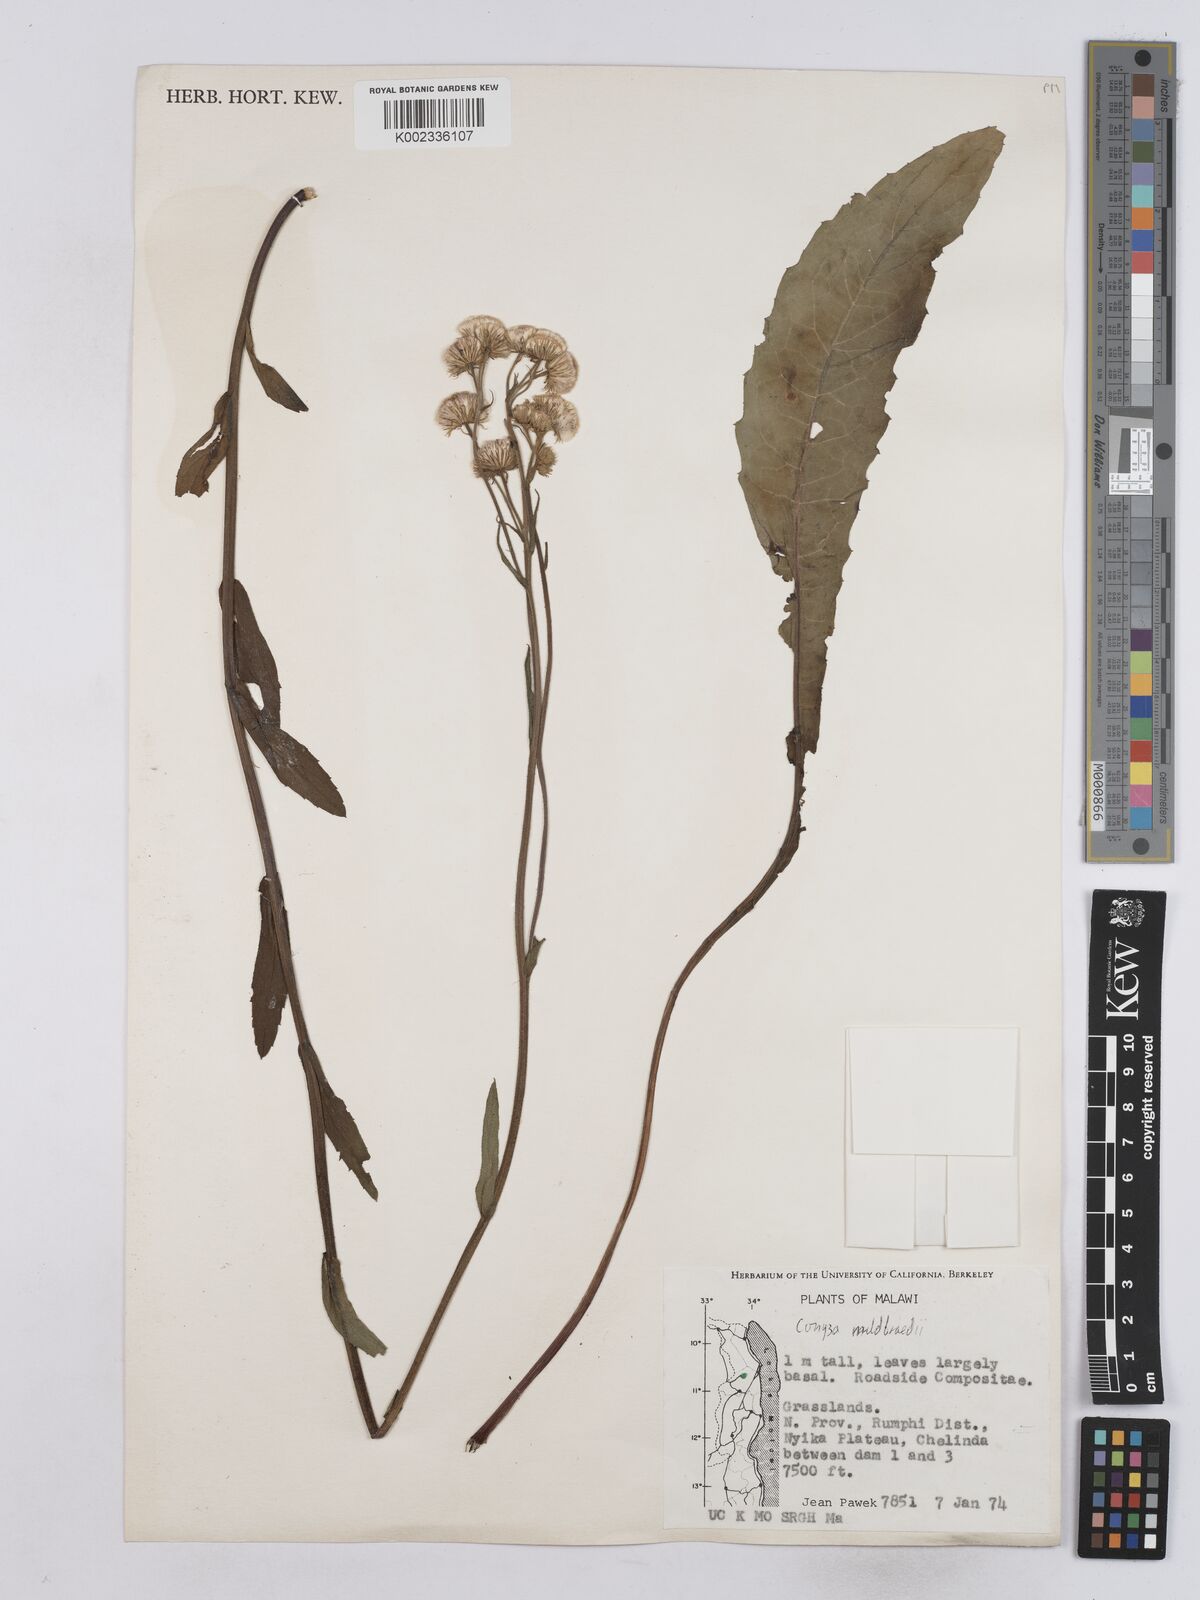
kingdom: Plantae
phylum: Tracheophyta
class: Magnoliopsida
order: Asterales
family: Asteraceae
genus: Conyza
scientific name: Conyza limosa
